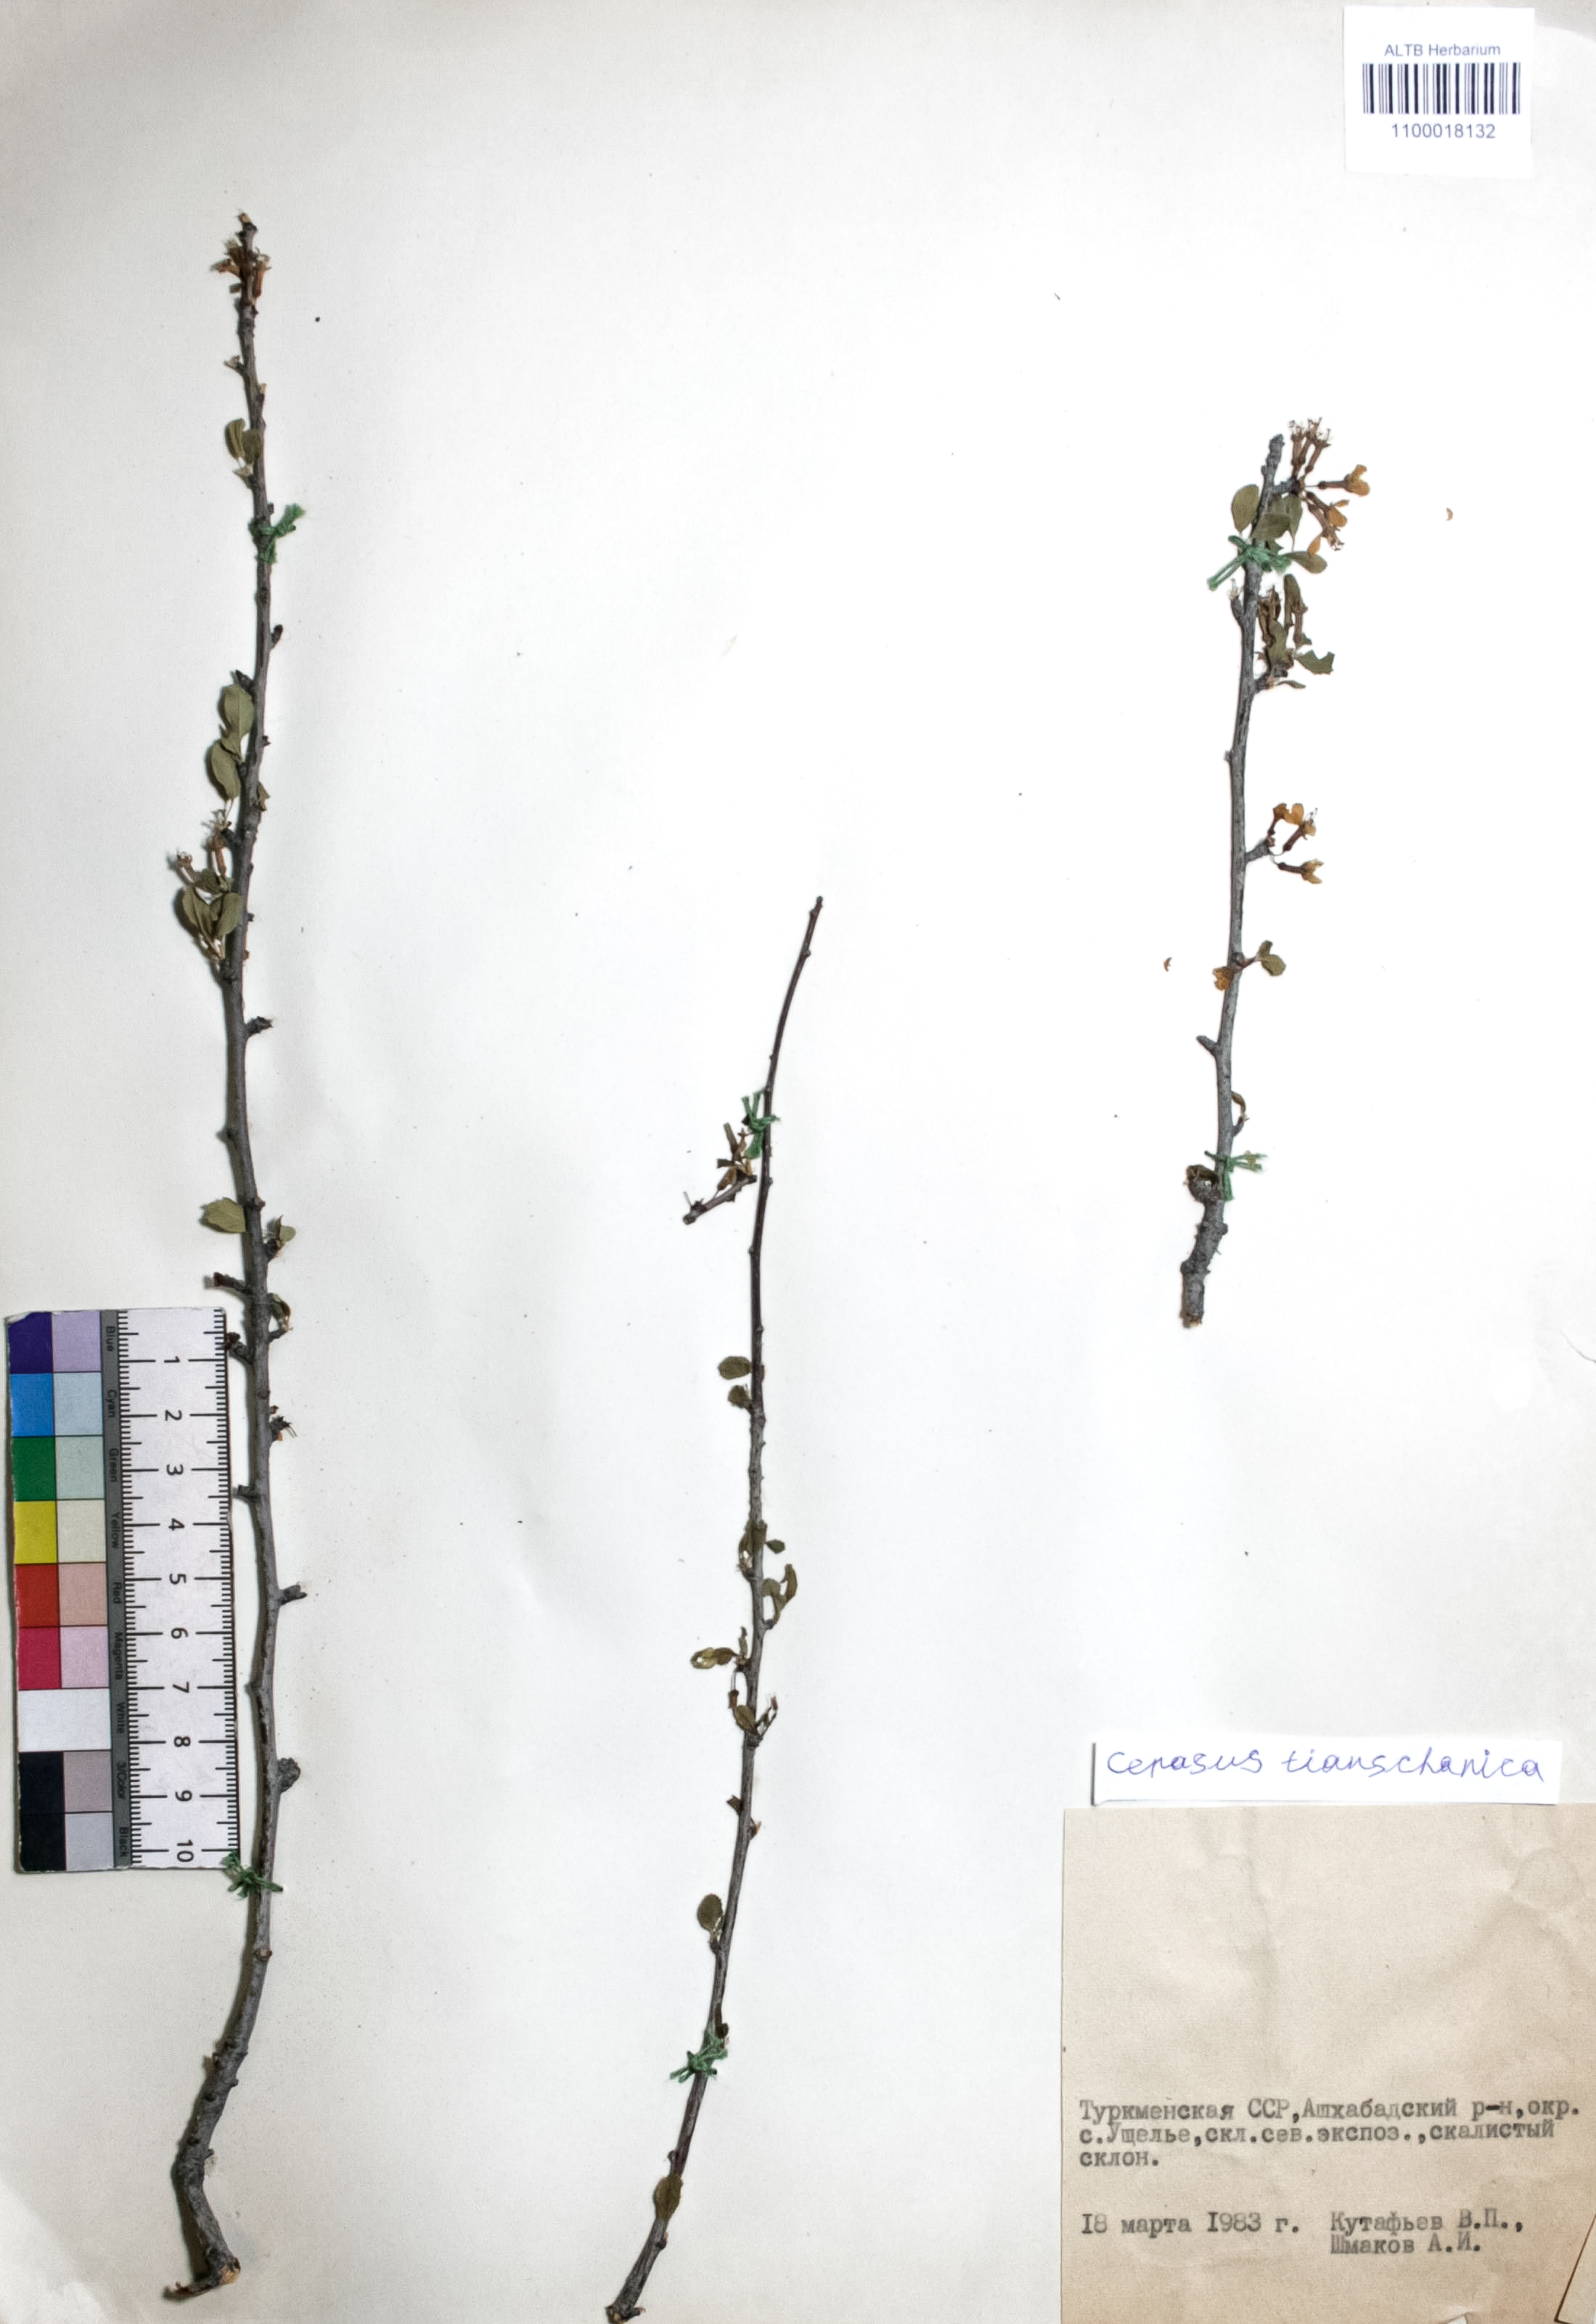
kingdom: Plantae
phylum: Tracheophyta
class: Magnoliopsida
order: Rosales
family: Rosaceae
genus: Prunus
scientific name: Prunus griffithii
